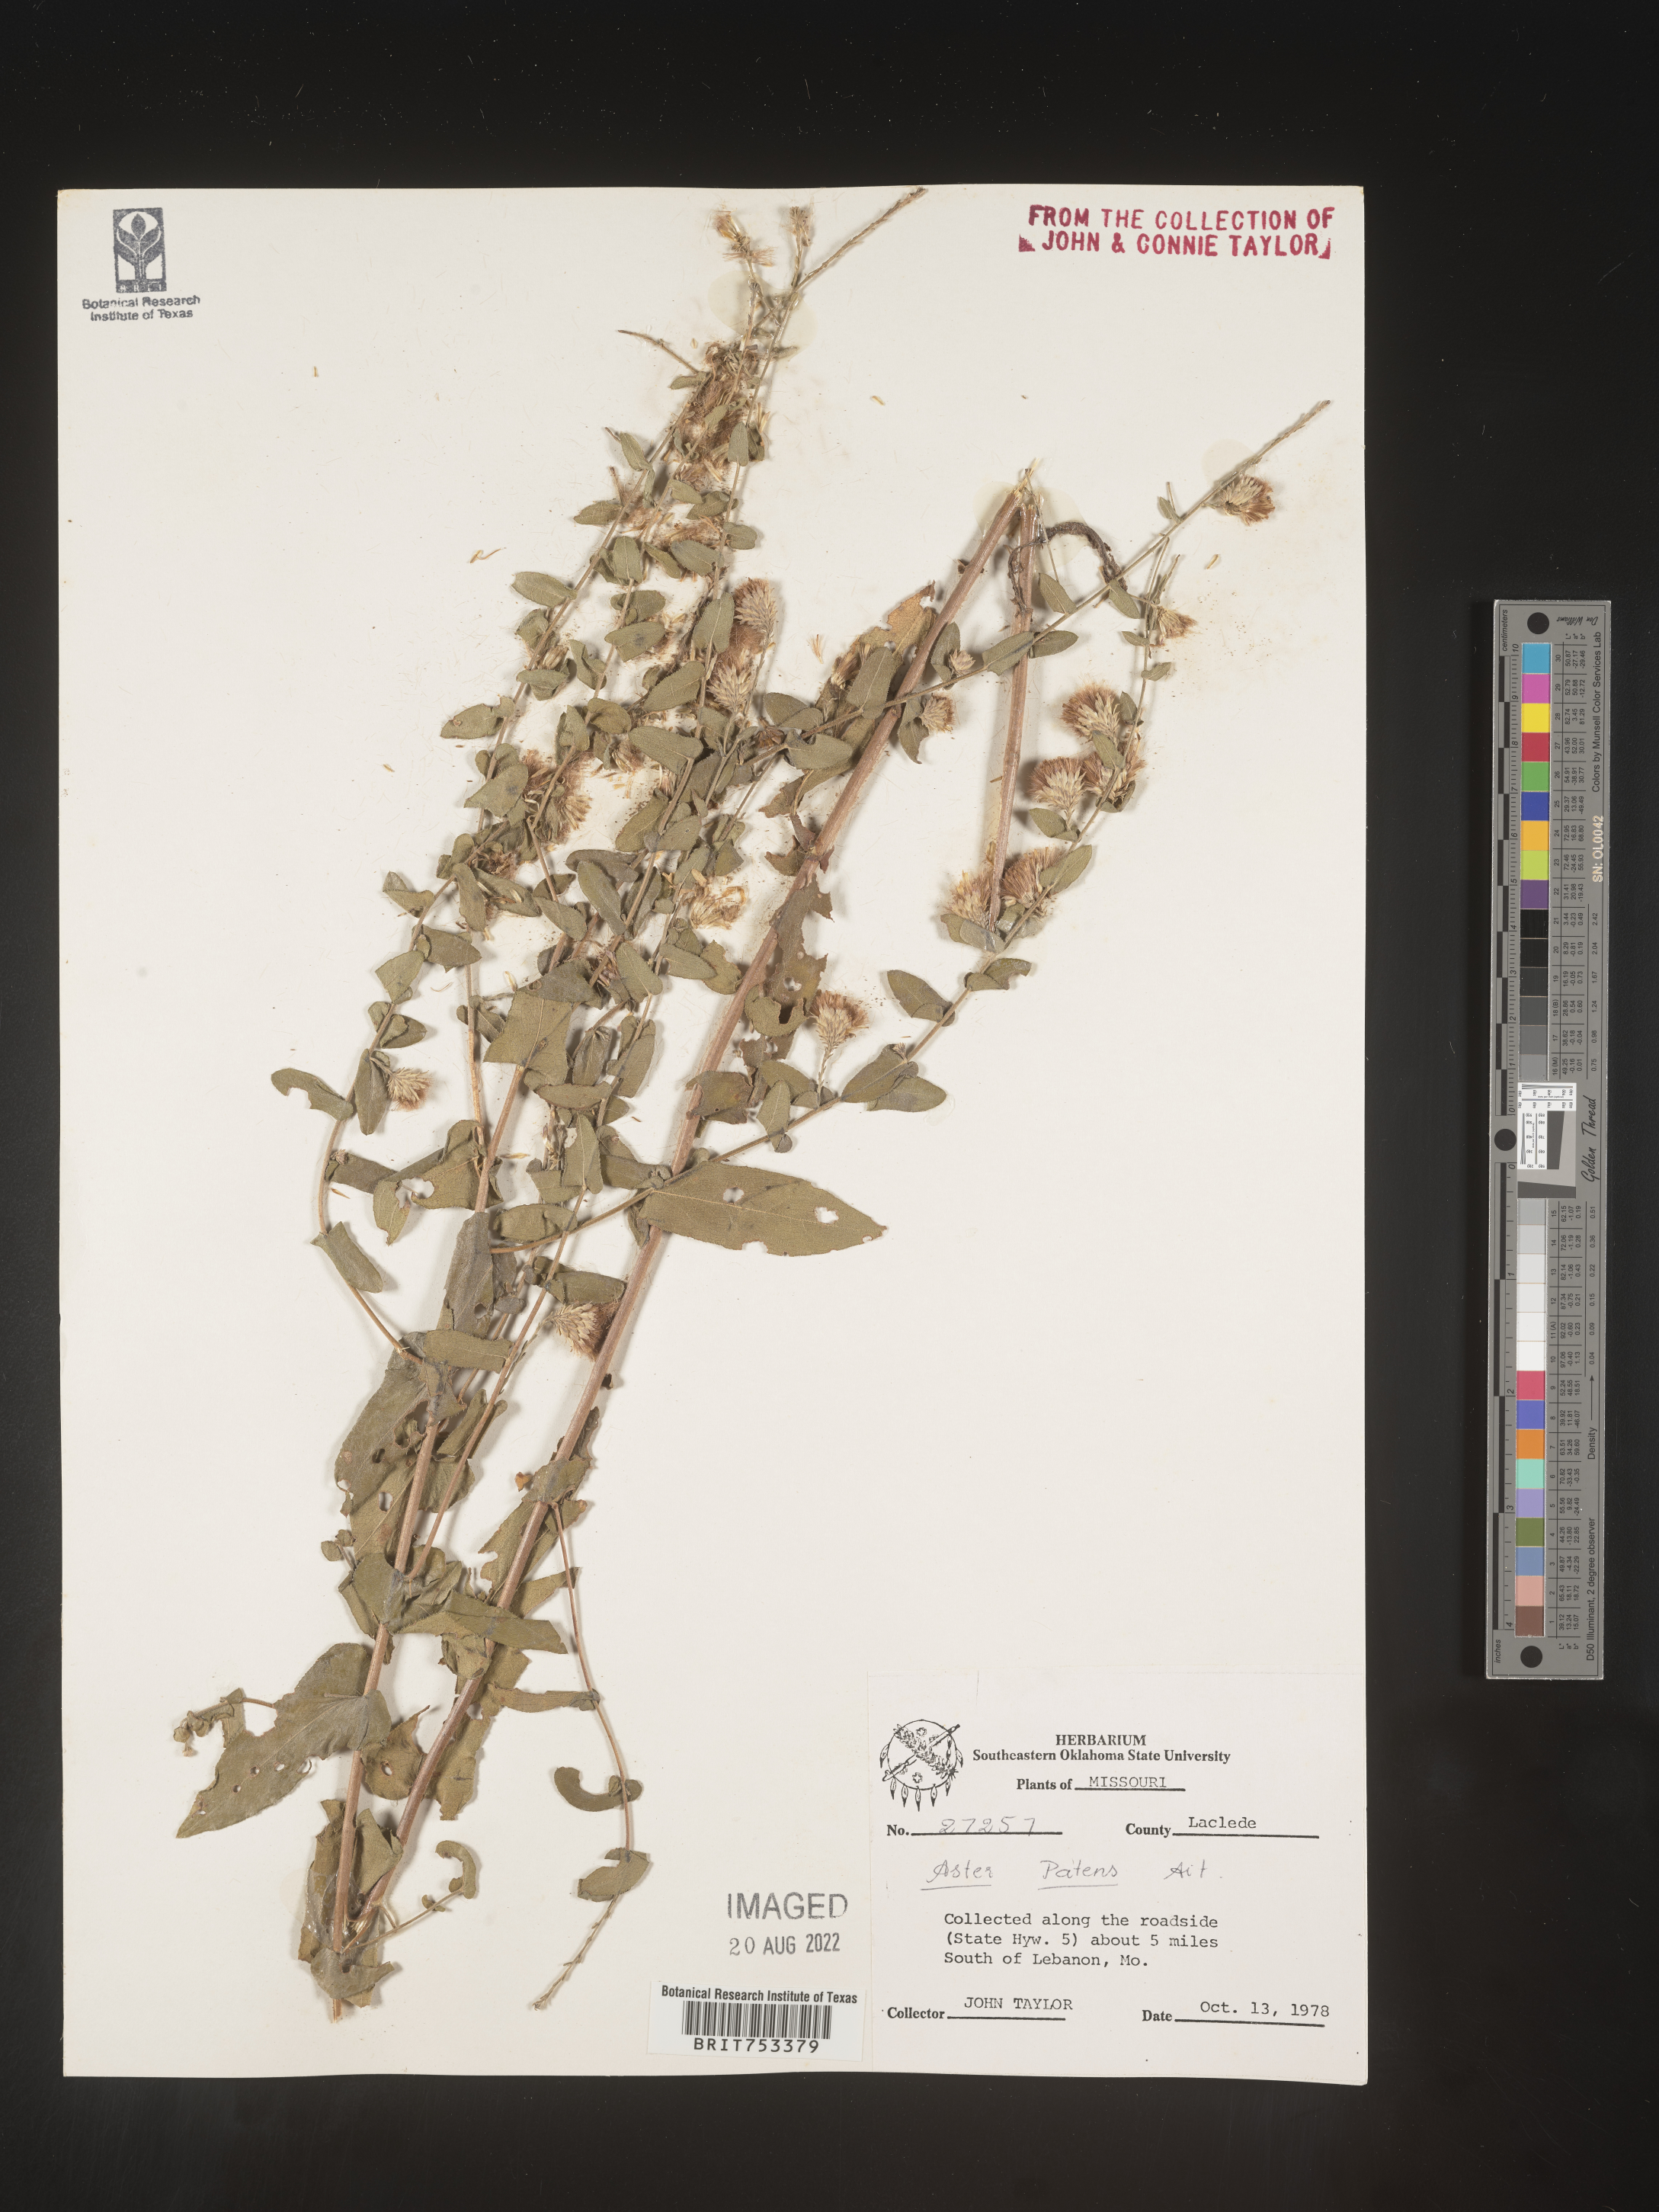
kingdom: Plantae
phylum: Tracheophyta
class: Magnoliopsida
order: Asterales
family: Asteraceae
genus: Symphyotrichum
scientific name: Symphyotrichum patens
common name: Late purple aster
